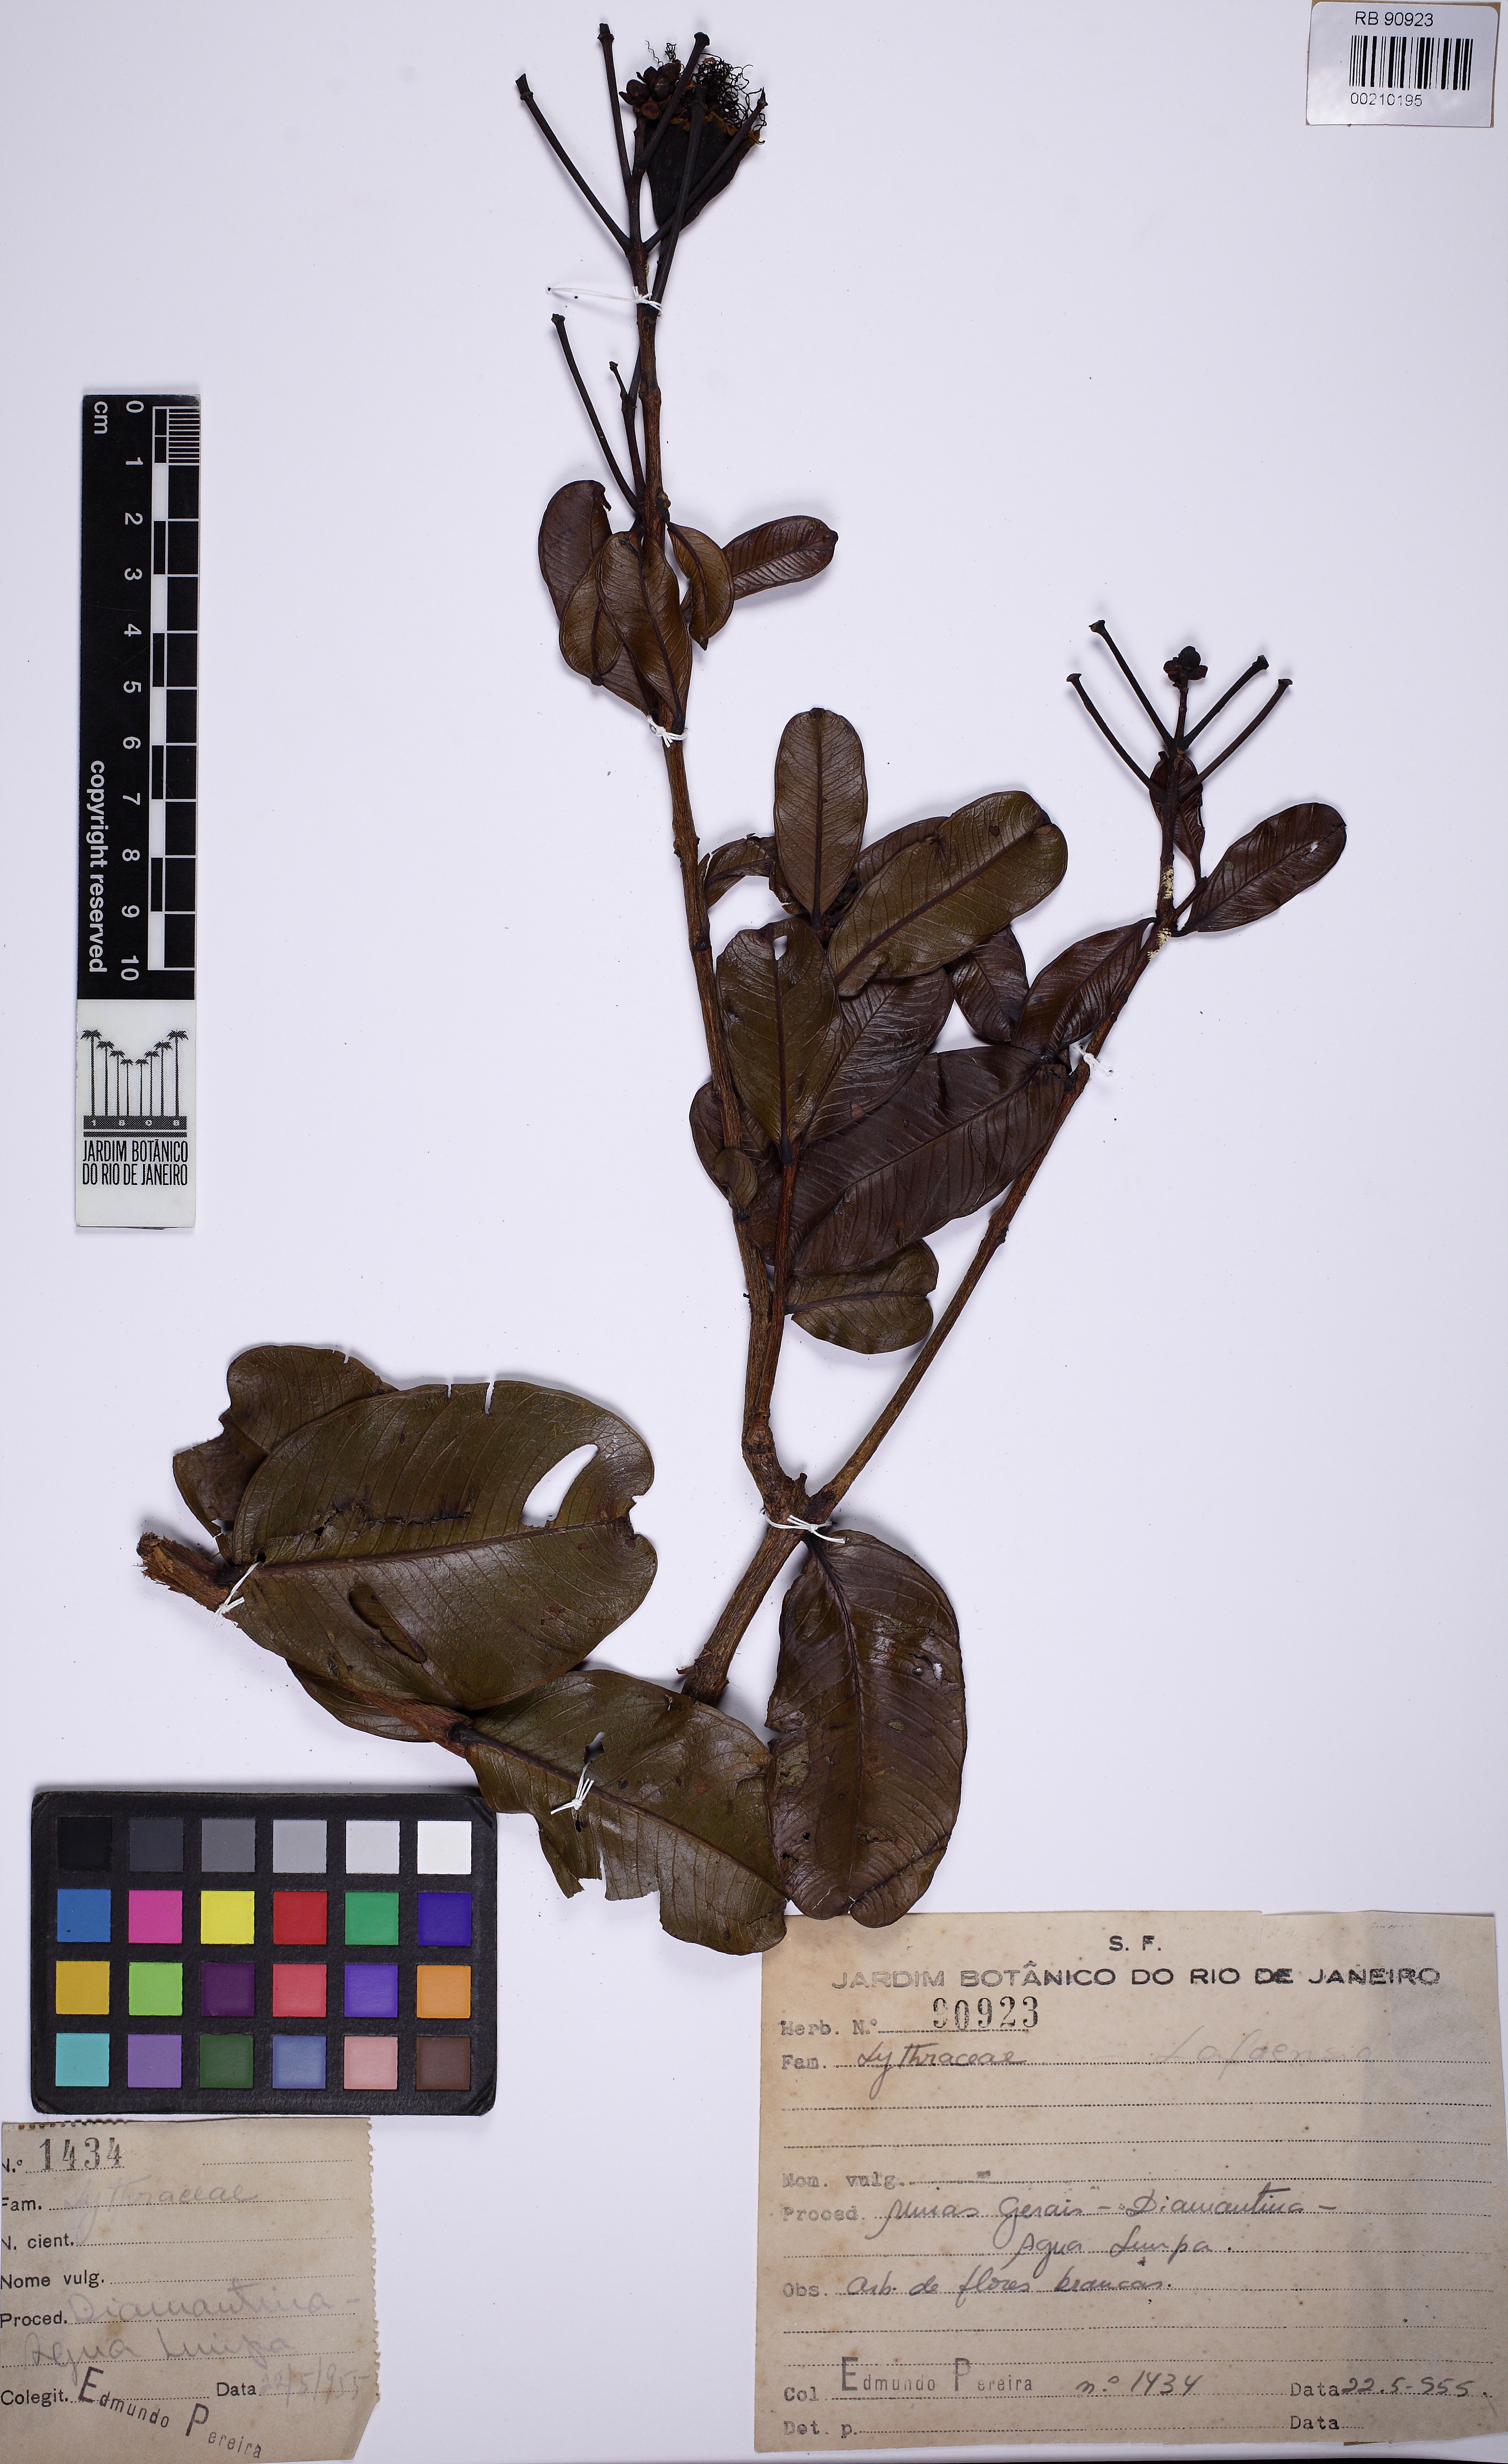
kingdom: Plantae
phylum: Tracheophyta
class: Magnoliopsida
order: Myrtales
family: Lythraceae
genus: Lafoensia
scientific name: Lafoensia
